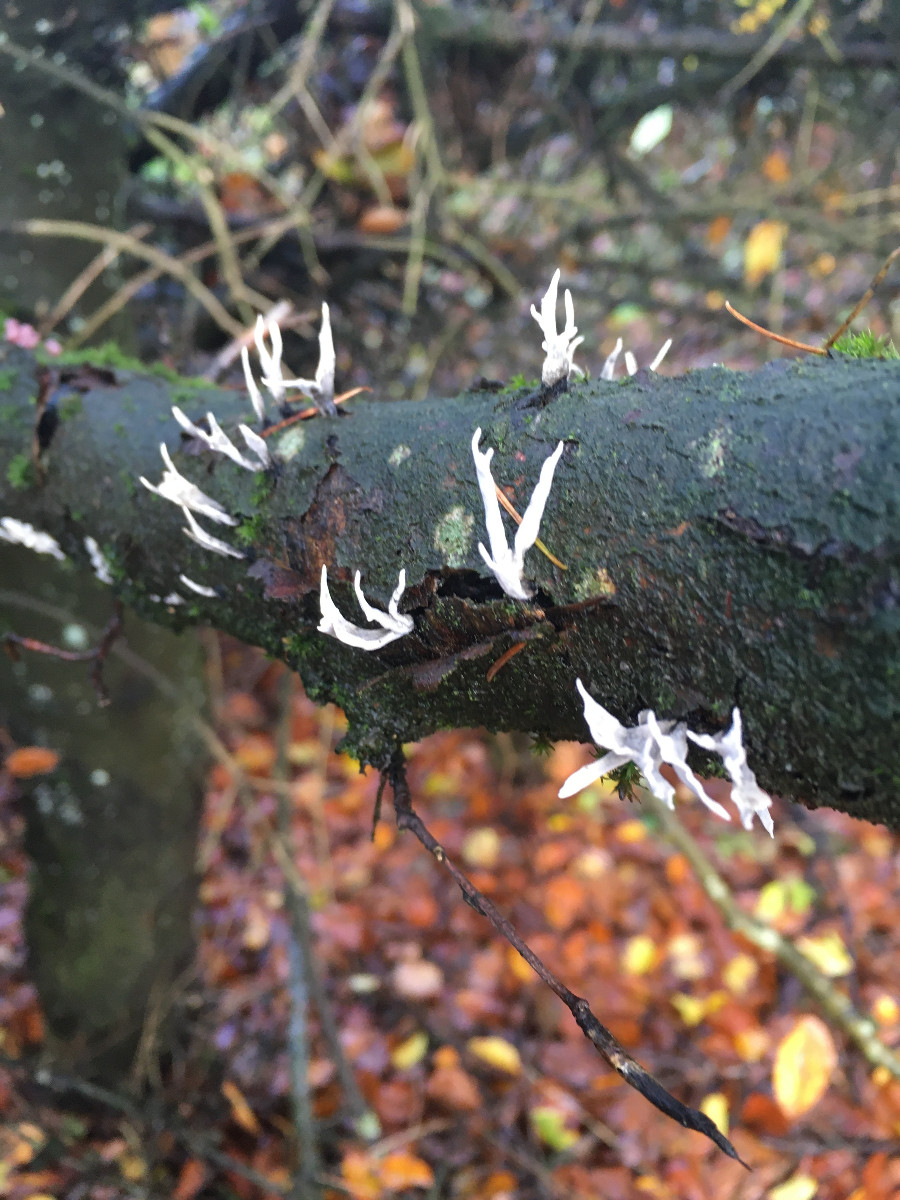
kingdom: Fungi
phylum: Ascomycota
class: Sordariomycetes
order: Xylariales
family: Xylariaceae
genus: Xylaria
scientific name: Xylaria hypoxylon
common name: grenet stødsvamp
